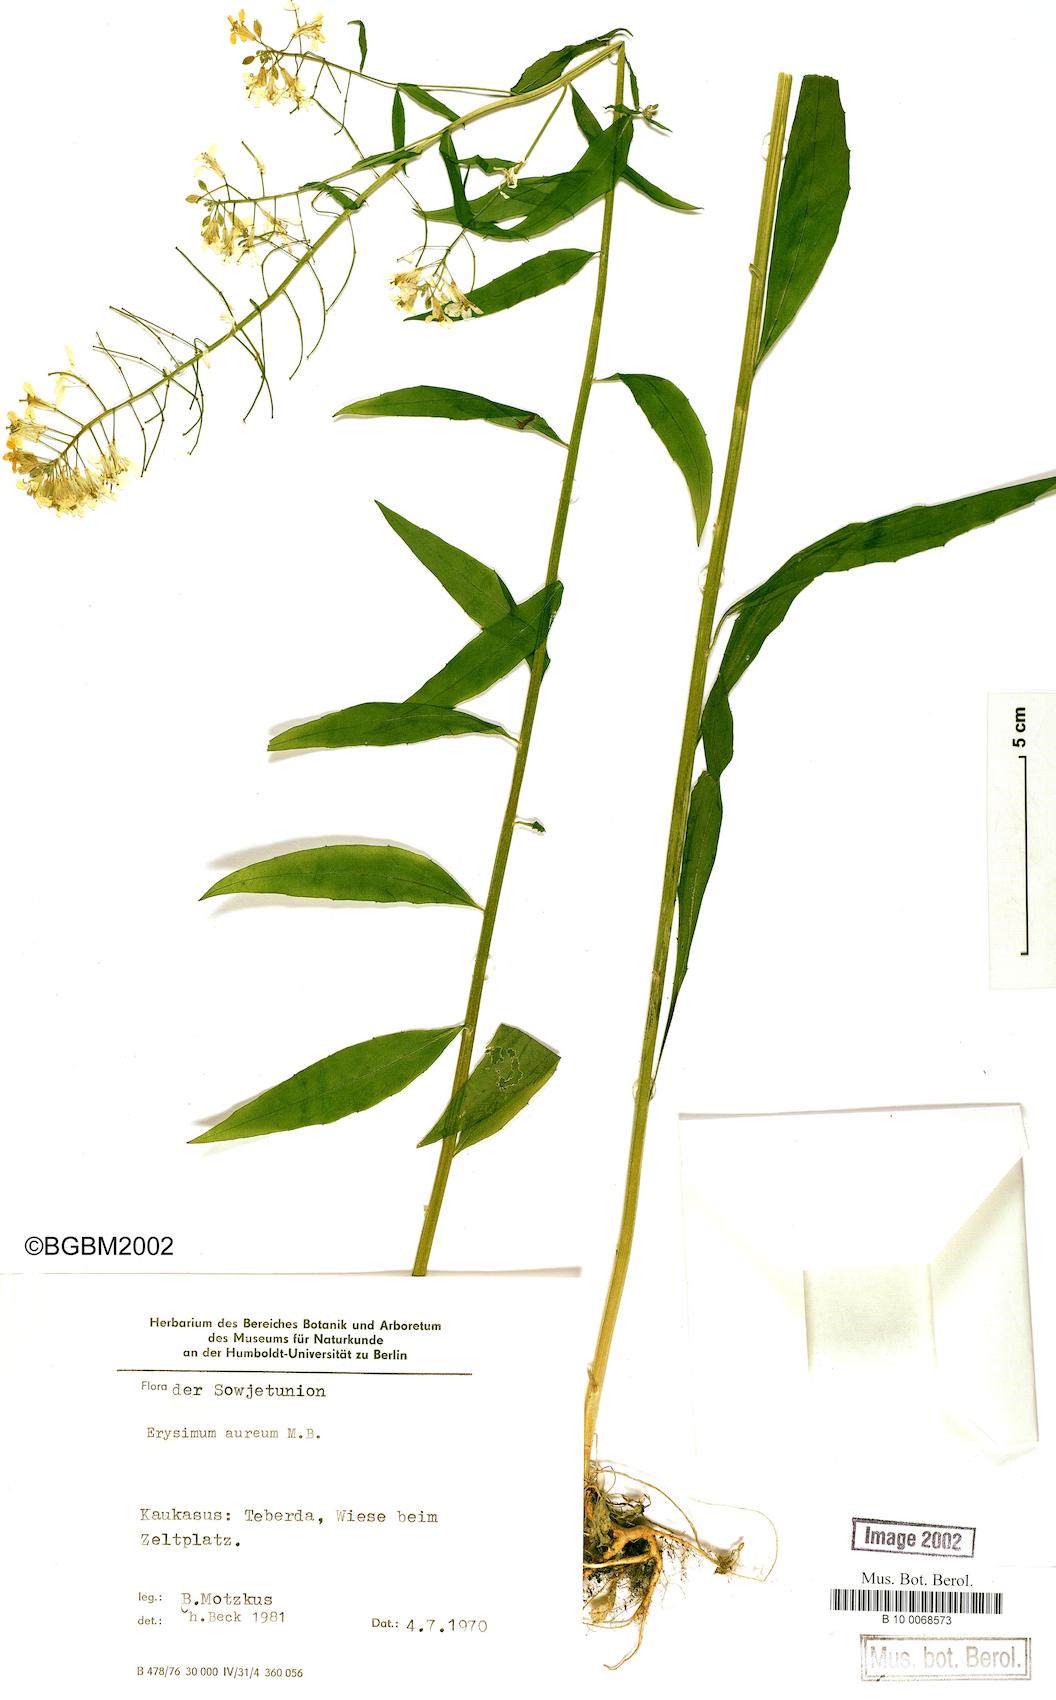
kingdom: Plantae
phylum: Tracheophyta
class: Magnoliopsida
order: Brassicales
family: Brassicaceae
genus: Erysimum
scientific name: Erysimum aureum
